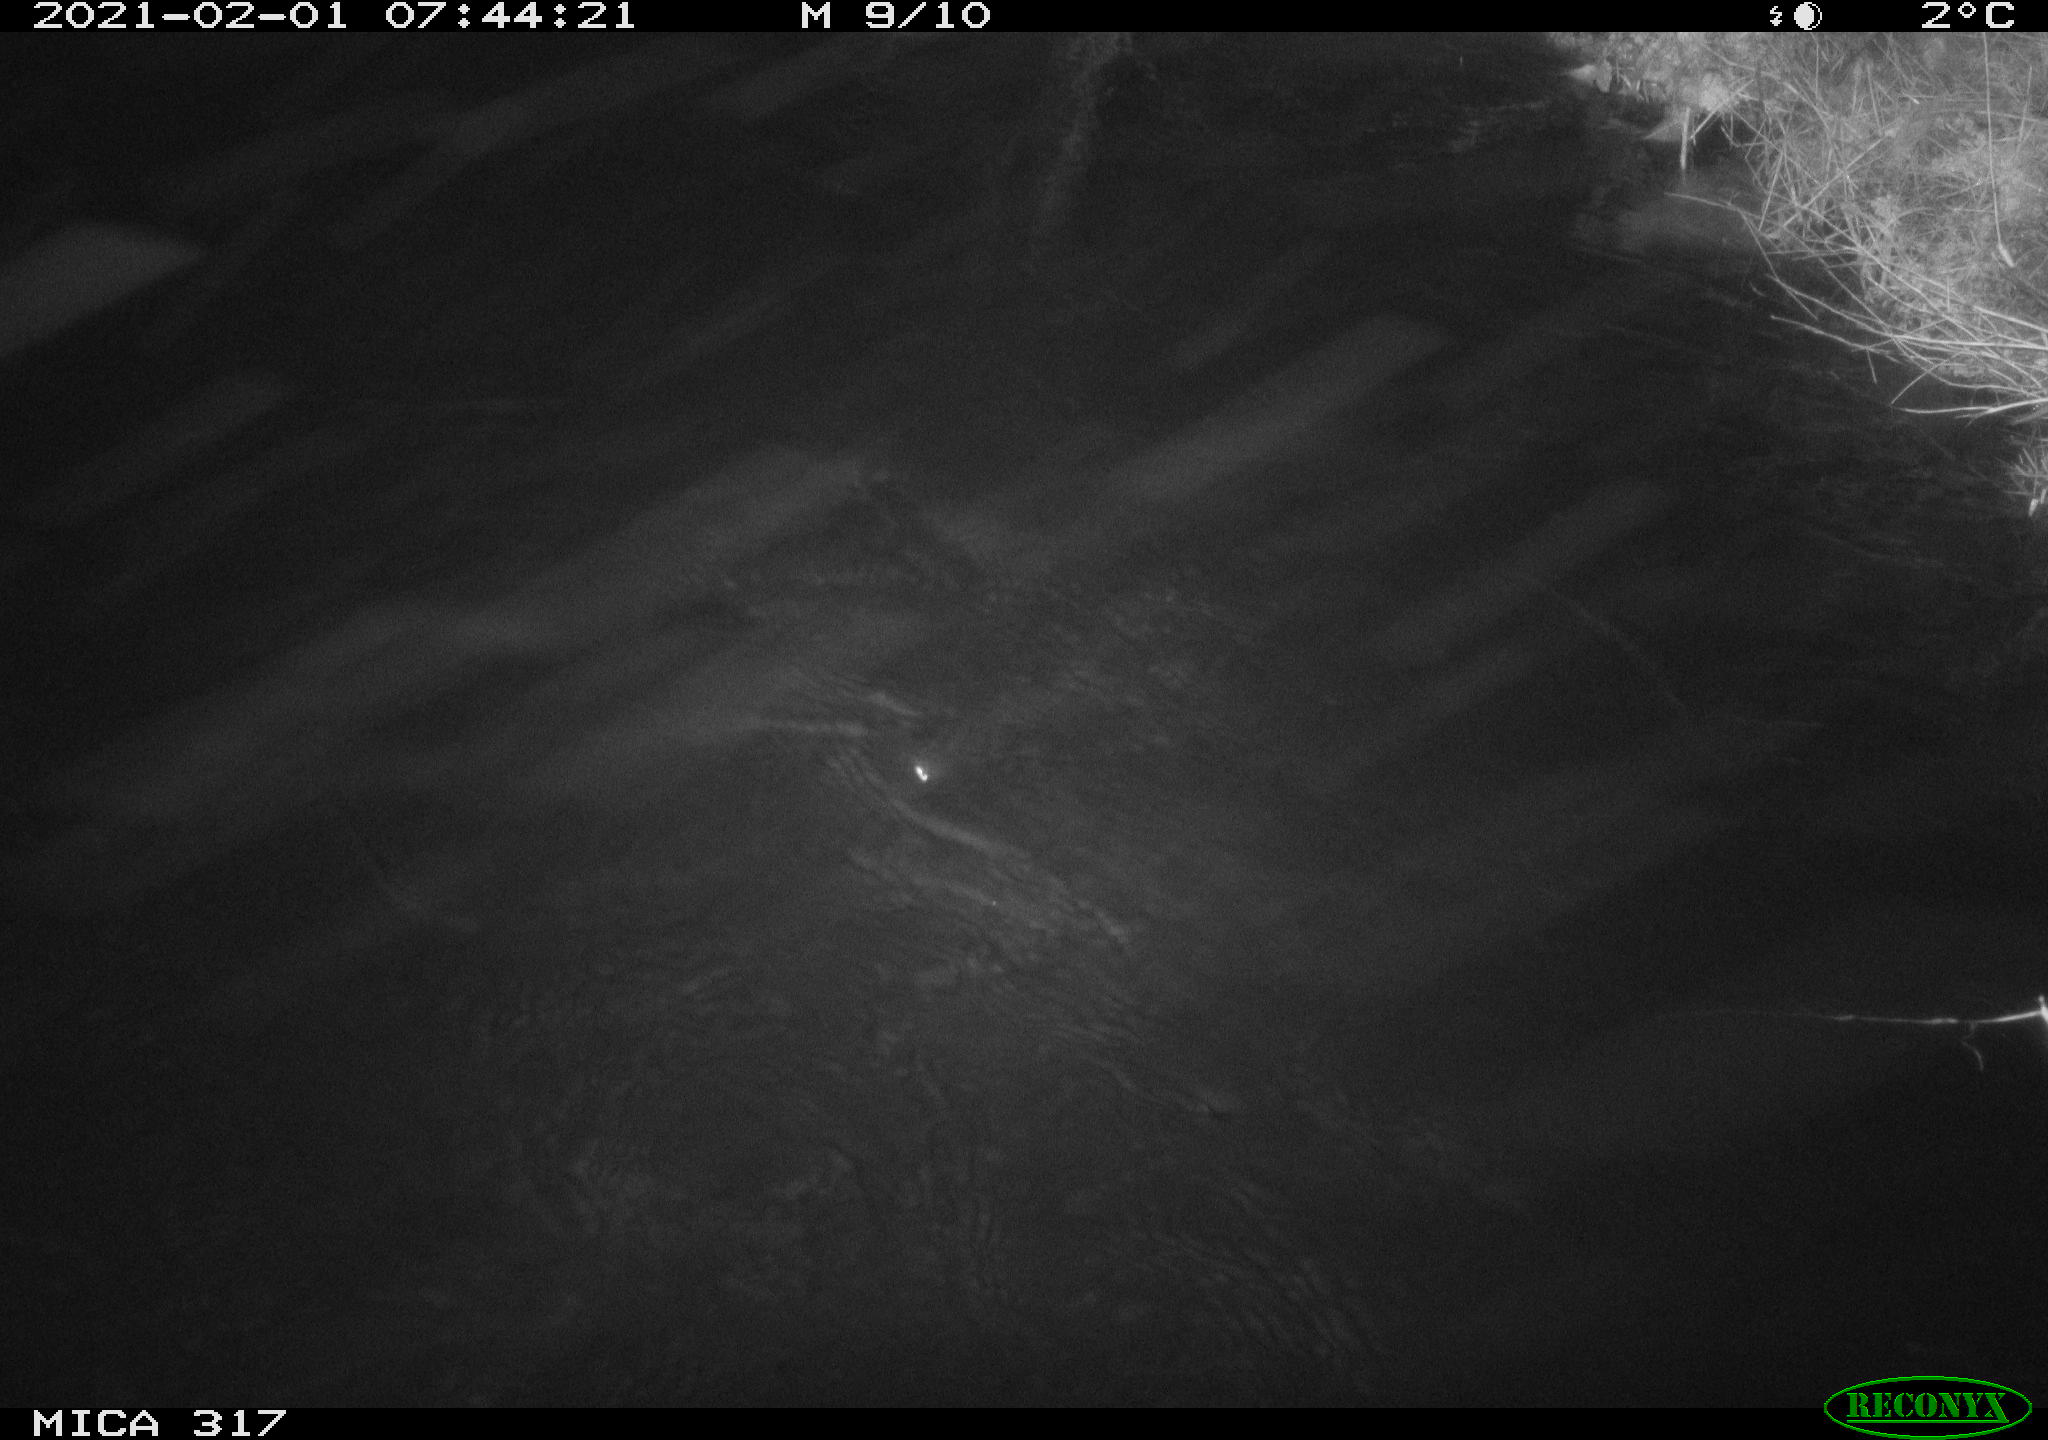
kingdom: Animalia
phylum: Chordata
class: Aves
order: Gruiformes
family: Rallidae
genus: Gallinula
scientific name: Gallinula chloropus
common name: Common moorhen
